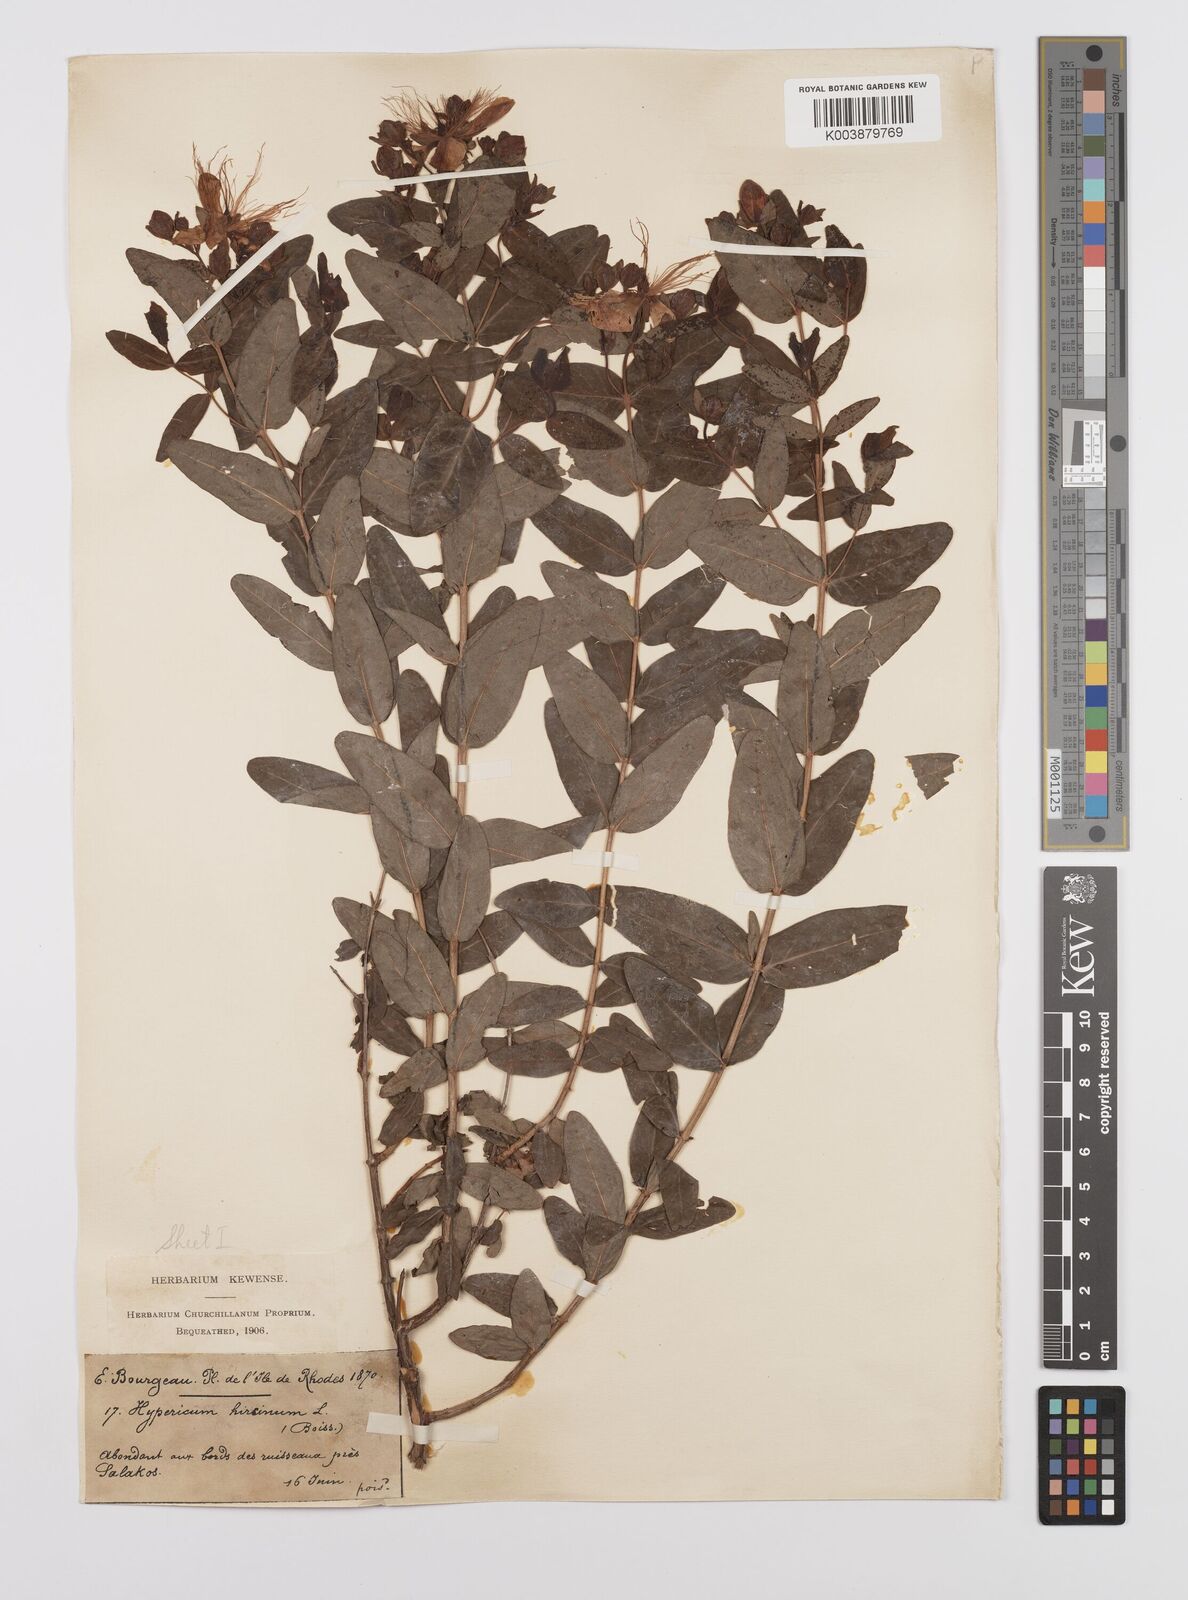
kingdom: Plantae
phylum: Tracheophyta
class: Magnoliopsida
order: Malpighiales
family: Hypericaceae
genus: Hypericum
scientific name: Hypericum hircinum
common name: Stinking tutsan
